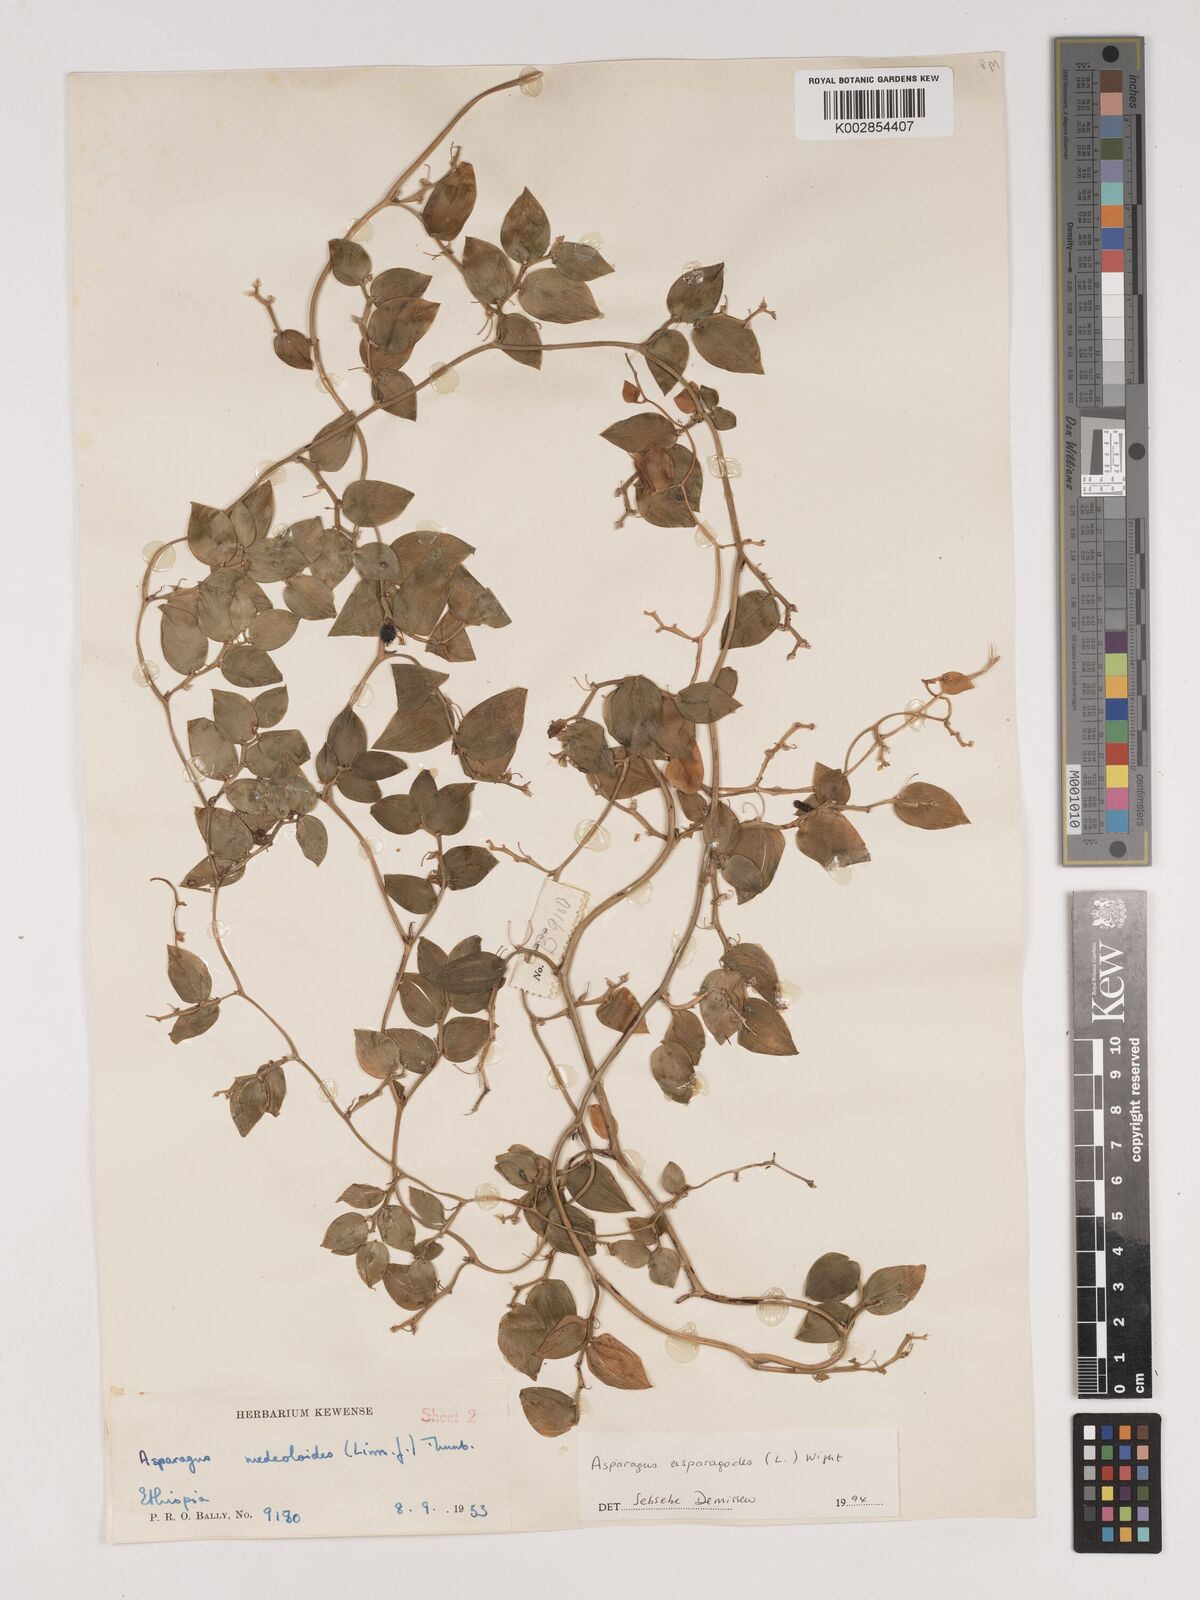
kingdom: Plantae
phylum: Tracheophyta
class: Liliopsida
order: Asparagales
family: Asparagaceae
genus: Asparagus
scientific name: Asparagus asparagoides
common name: African asparagus fern
